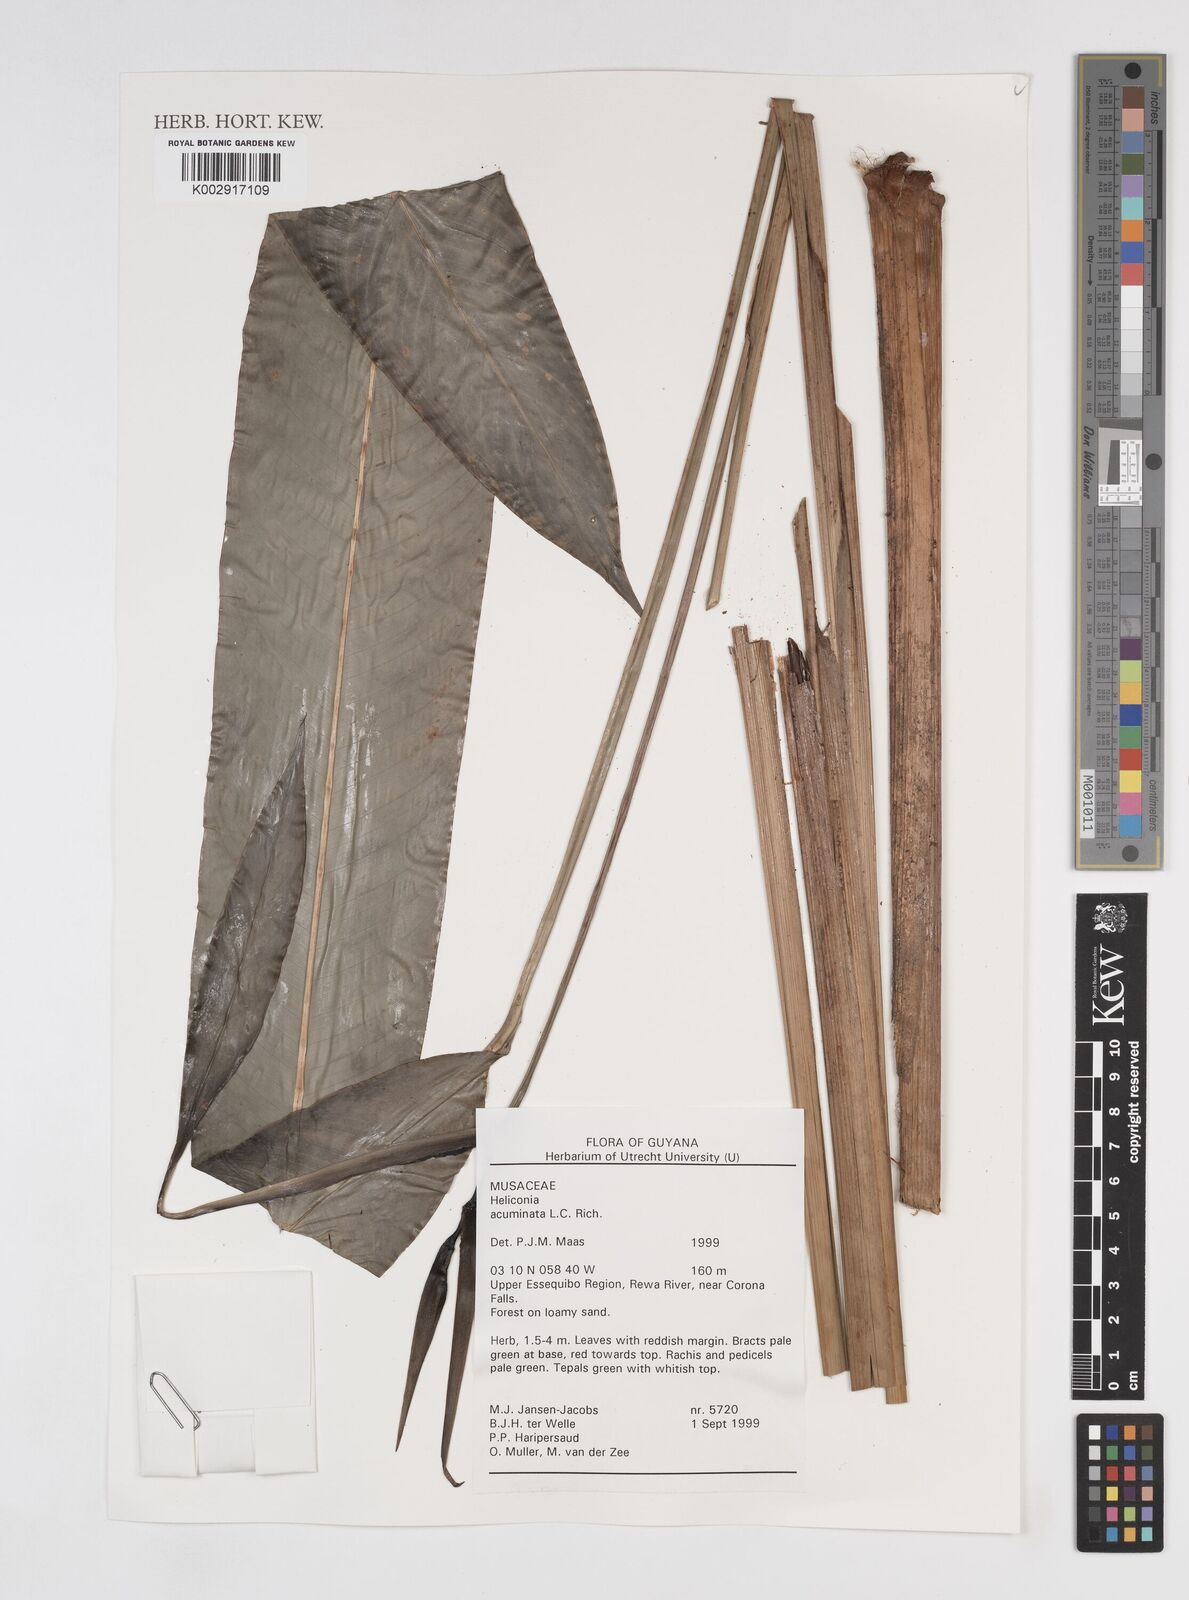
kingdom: Plantae
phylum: Tracheophyta
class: Liliopsida
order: Zingiberales
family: Heliconiaceae
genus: Heliconia
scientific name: Heliconia acuminata
